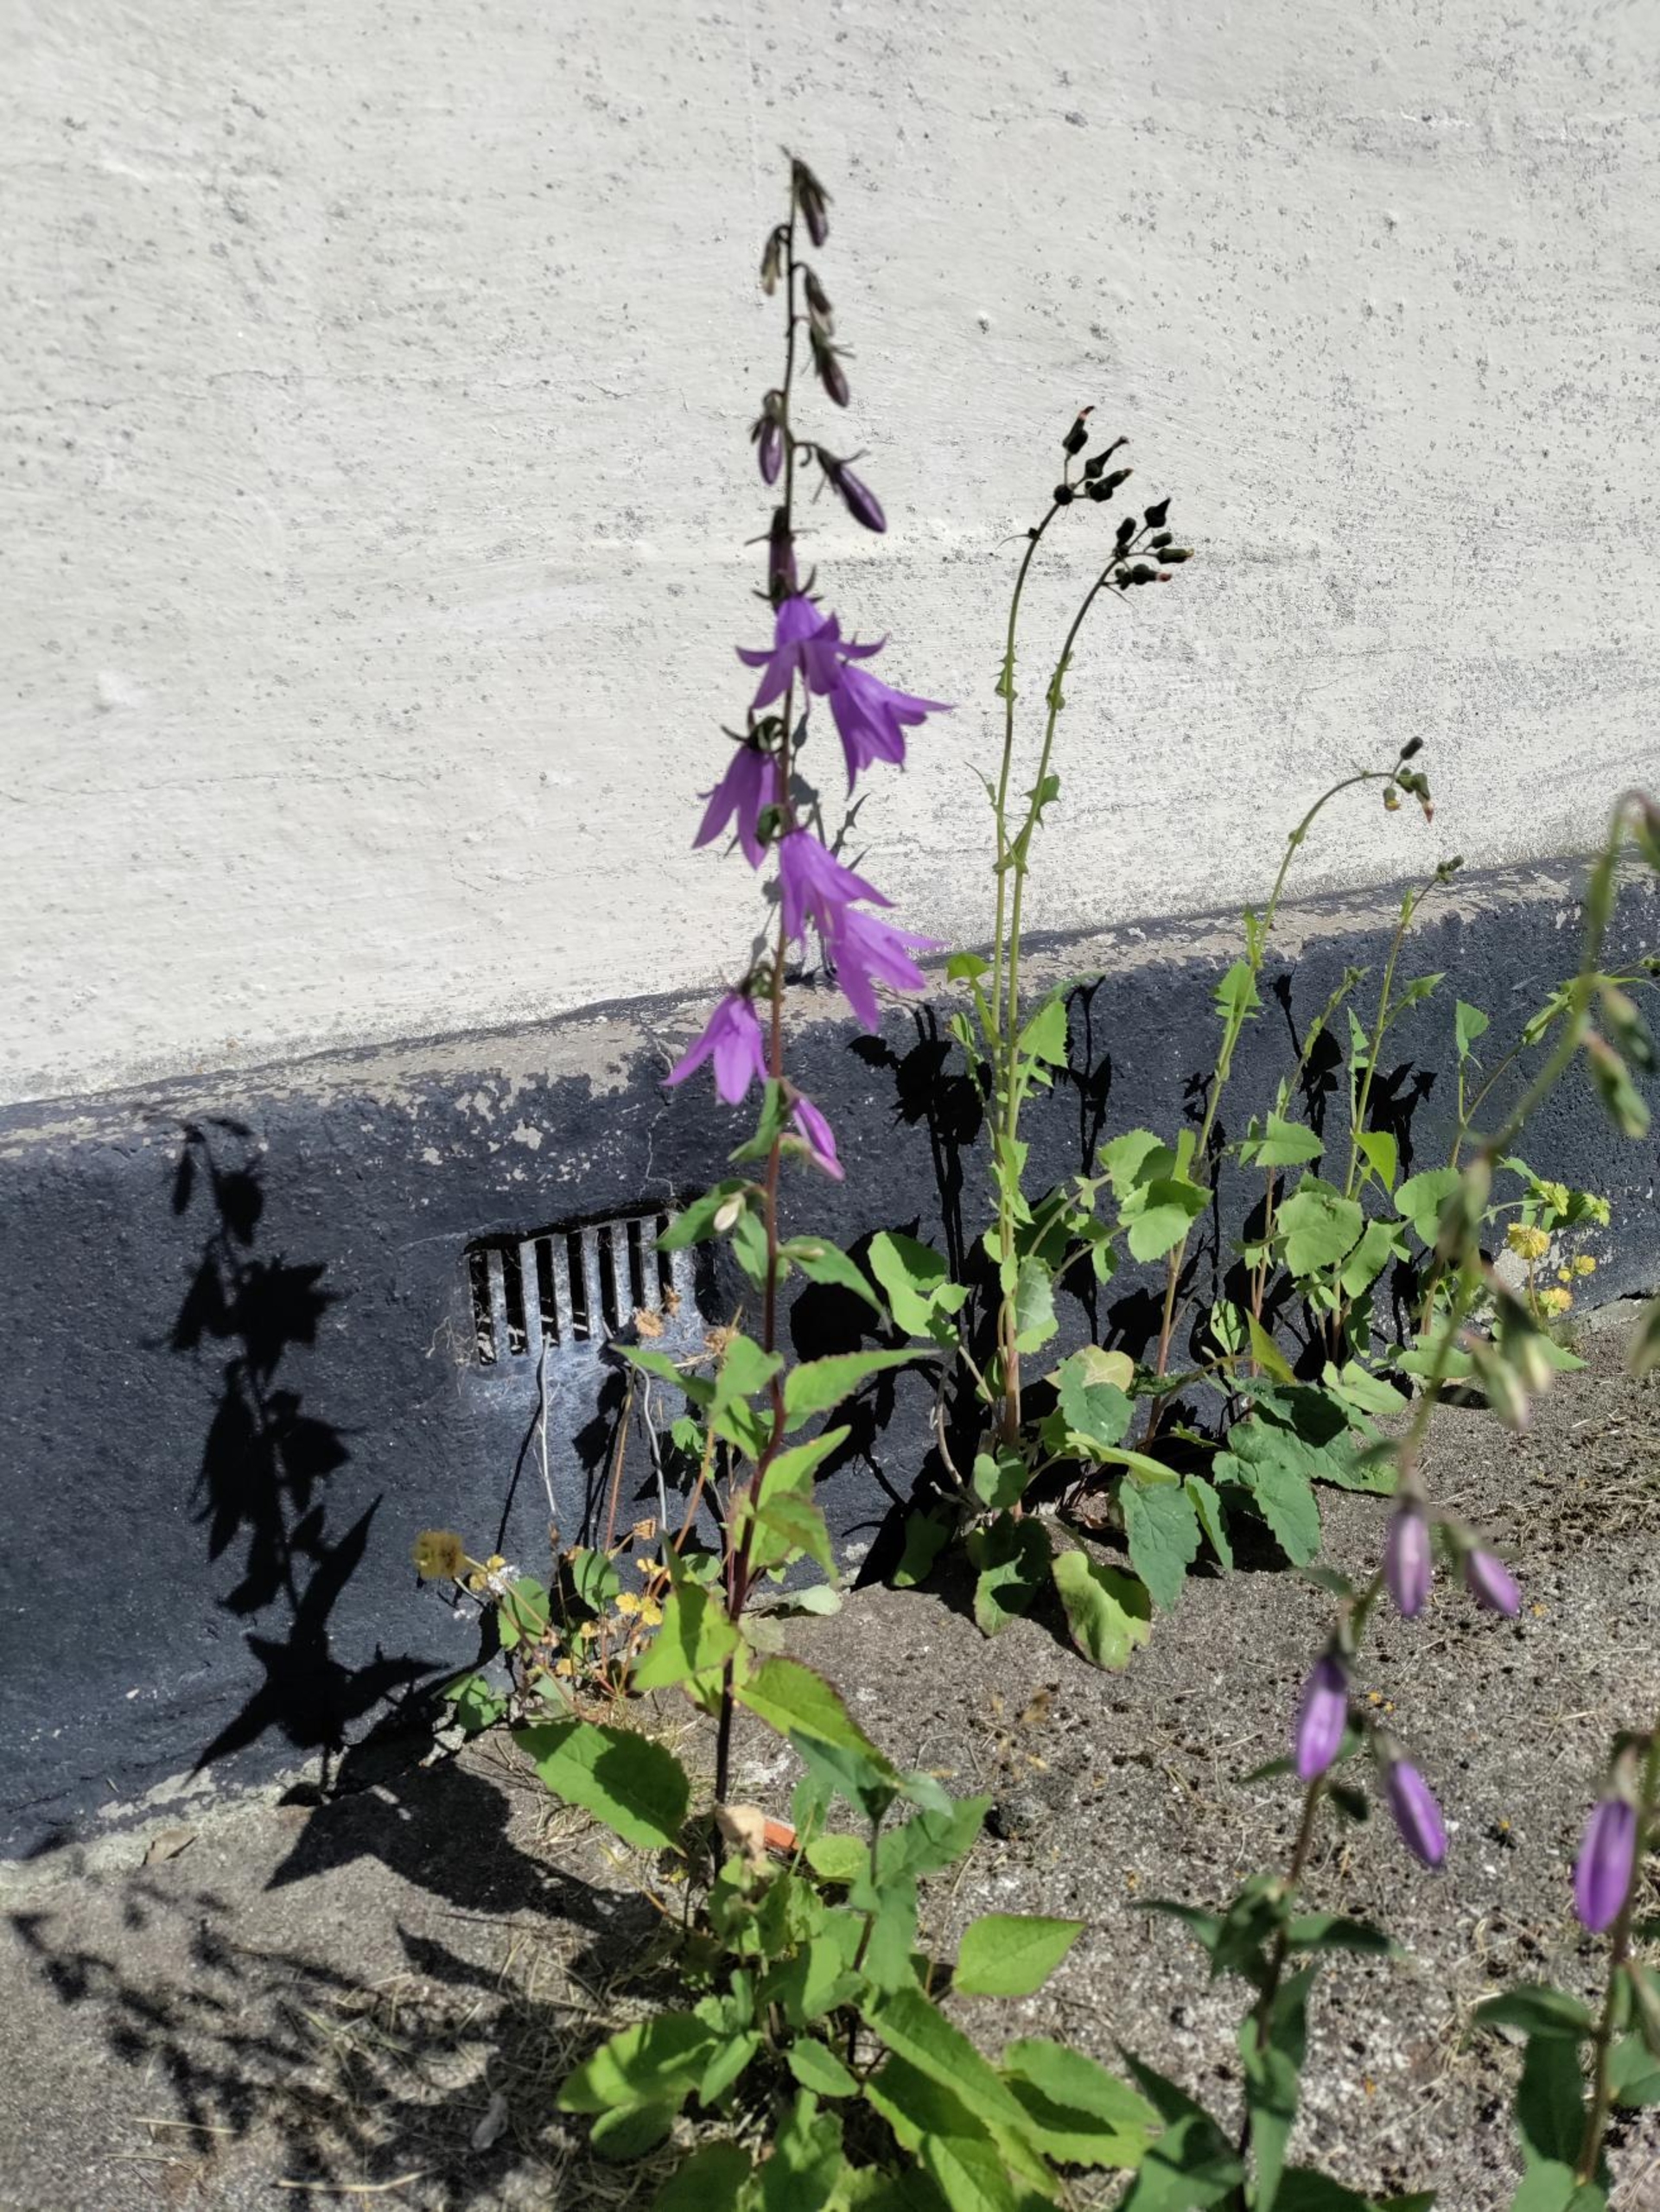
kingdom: Plantae
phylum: Tracheophyta
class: Magnoliopsida
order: Asterales
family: Campanulaceae
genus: Campanula
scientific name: Campanula rapunculoides
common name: Ensidig klokke
